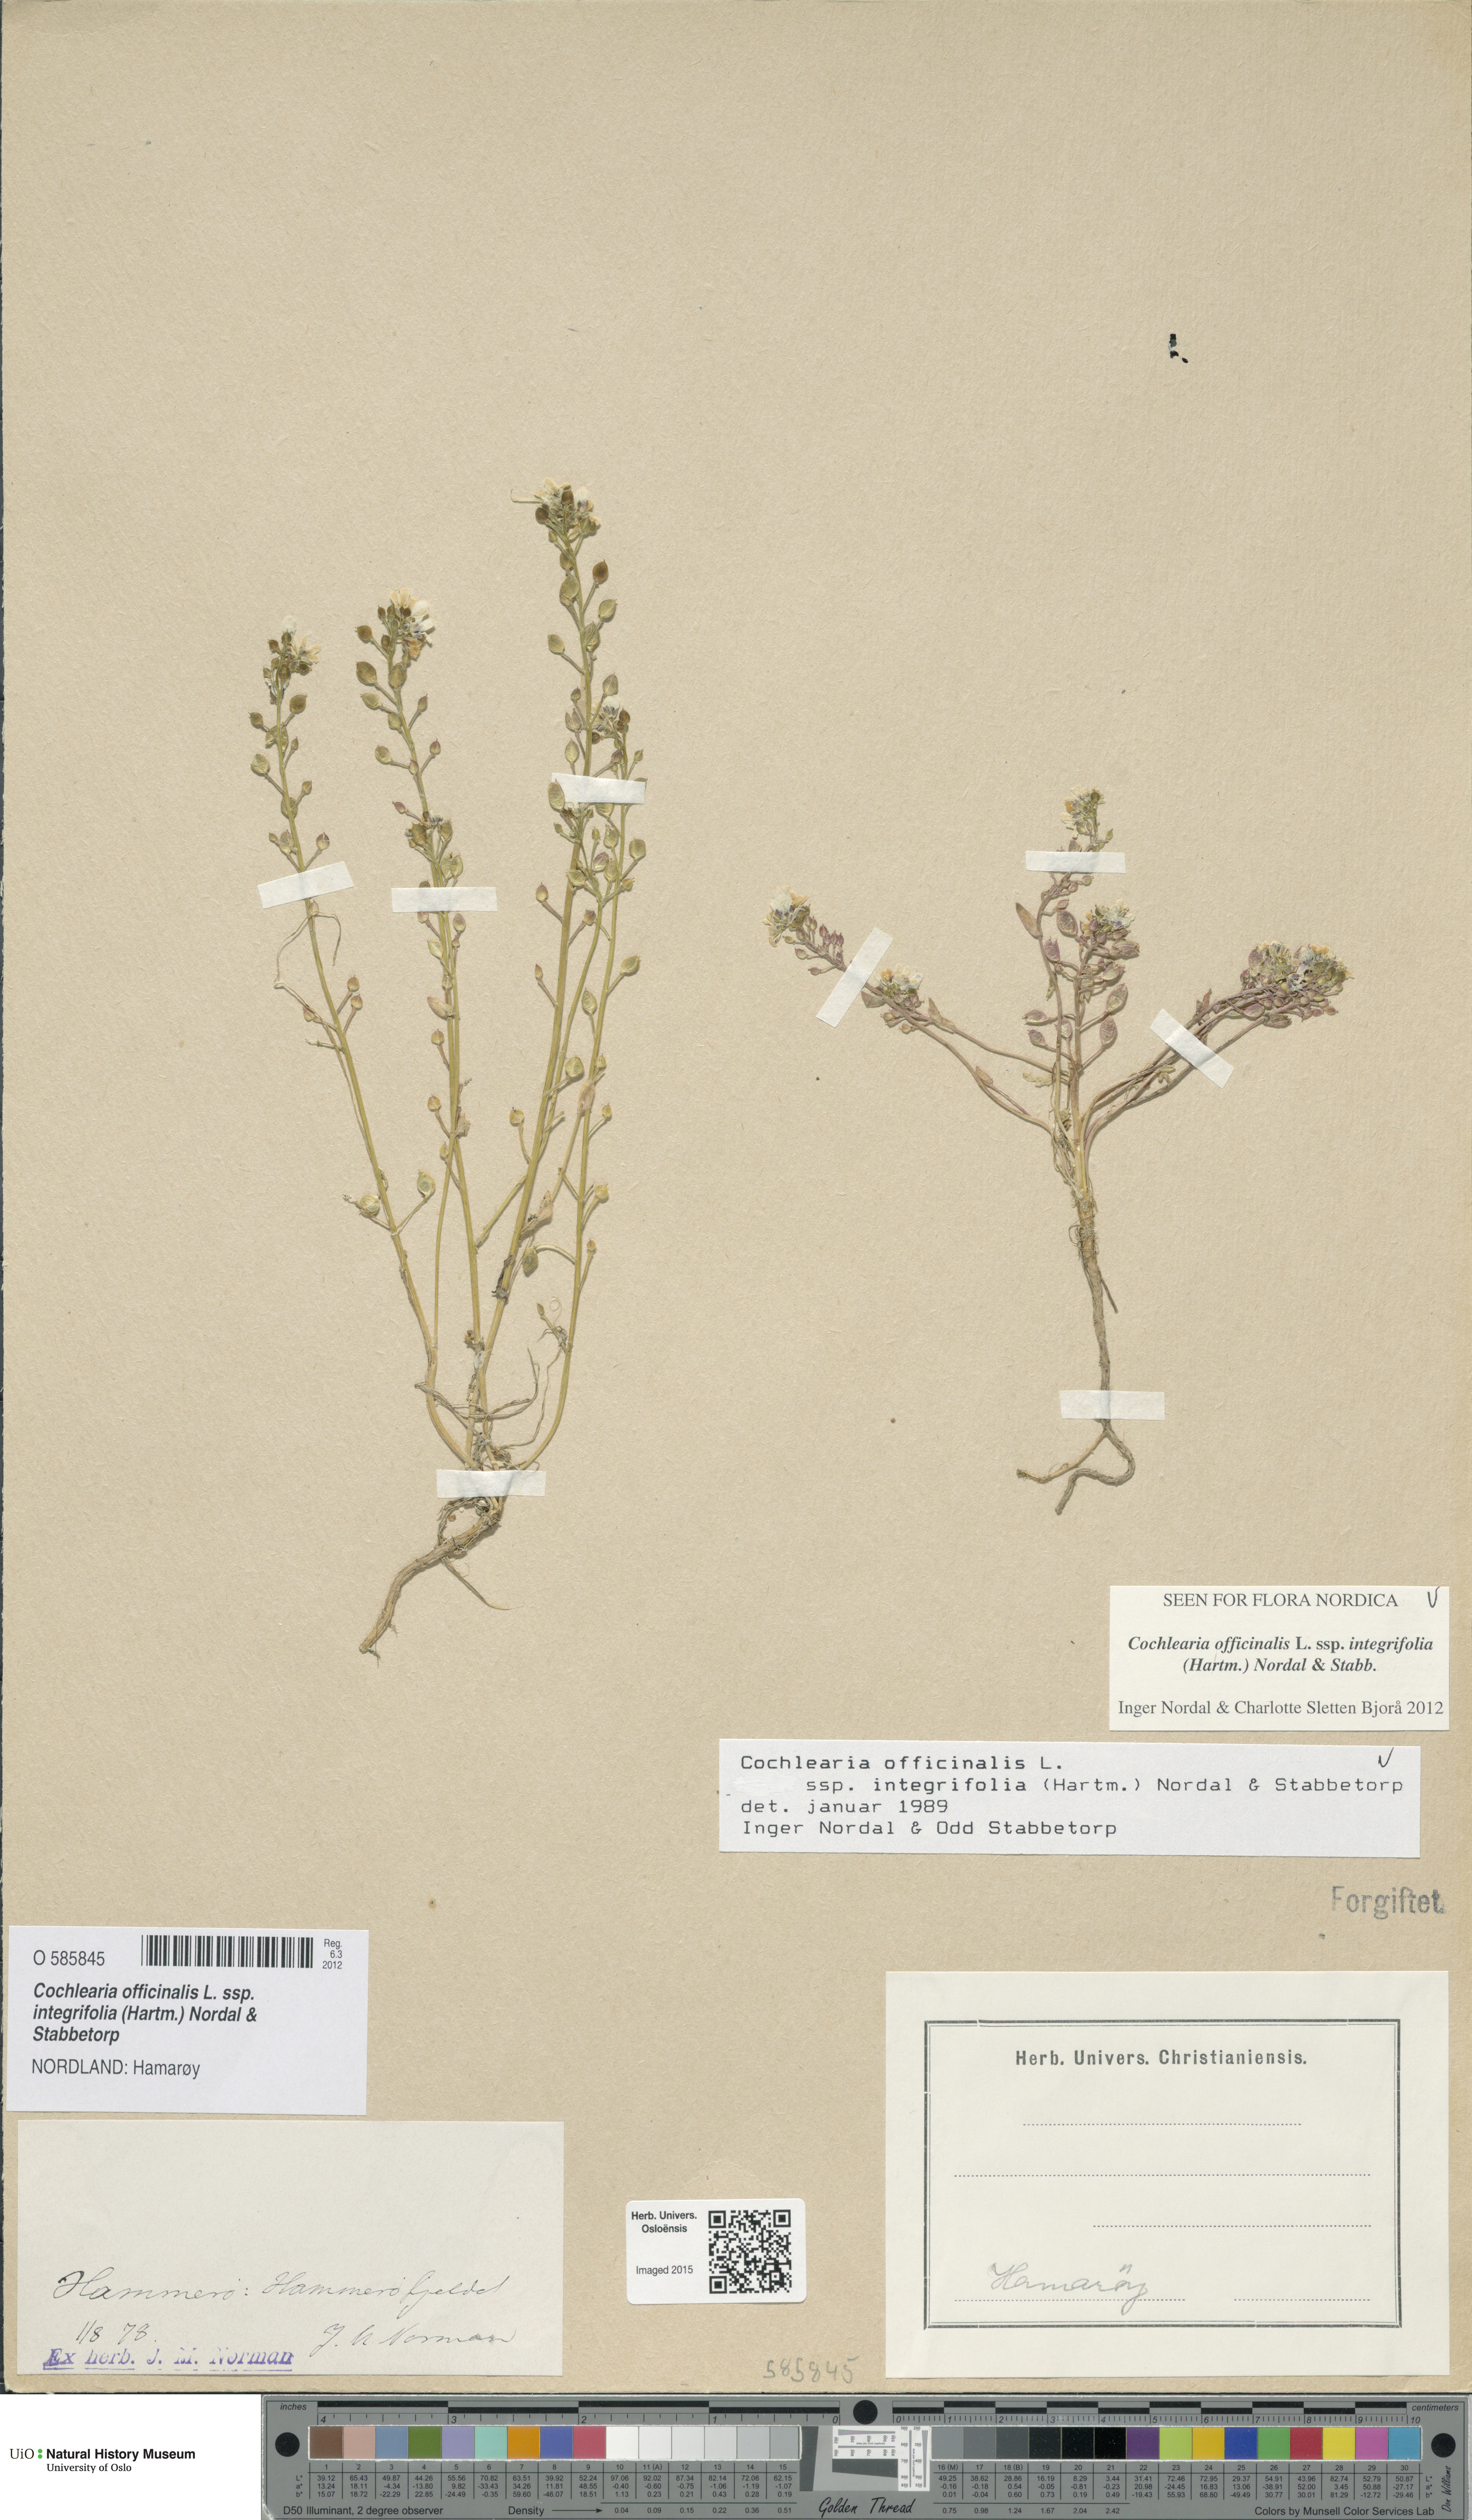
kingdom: Plantae
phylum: Tracheophyta
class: Magnoliopsida
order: Brassicales
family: Brassicaceae
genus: Cochlearia
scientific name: Cochlearia officinalis
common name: Scurvy-grass
